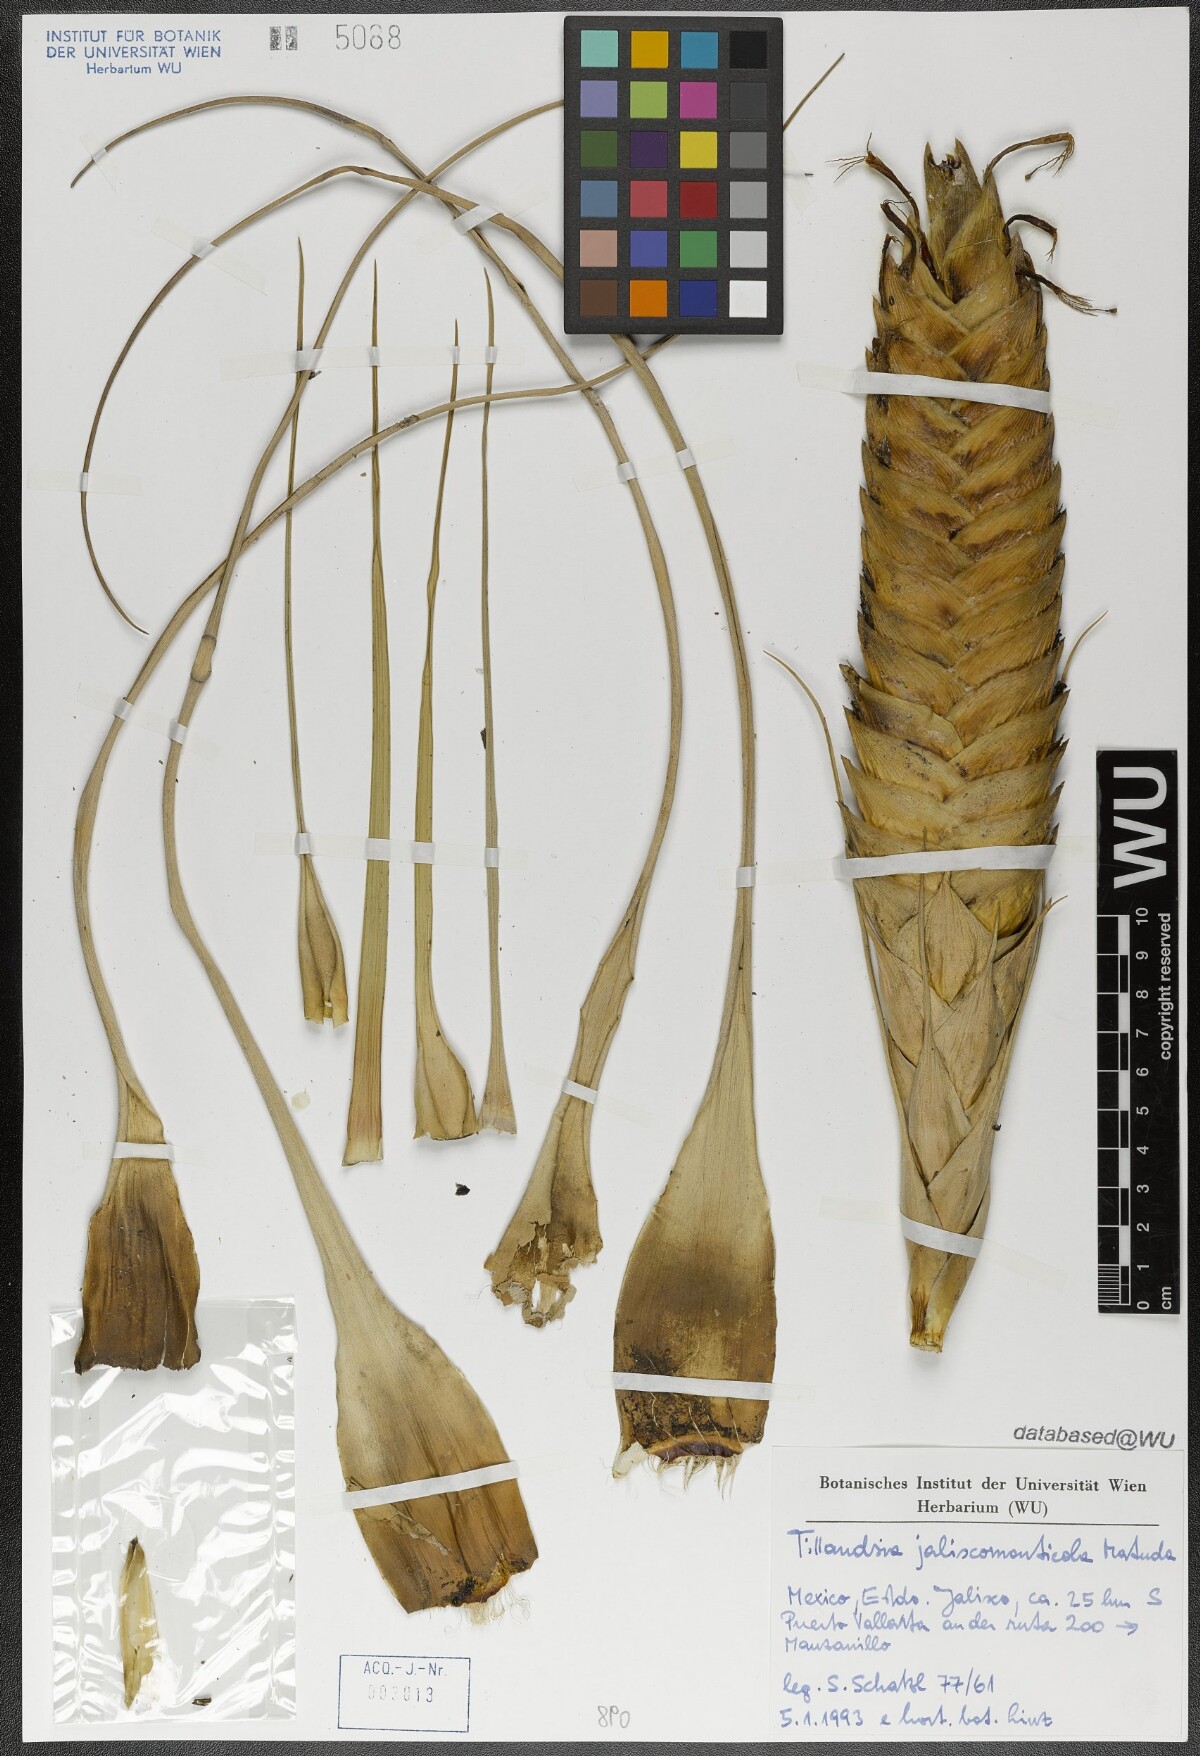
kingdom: Plantae
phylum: Tracheophyta
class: Liliopsida
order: Poales
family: Bromeliaceae
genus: Tillandsia
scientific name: Tillandsia compressa
